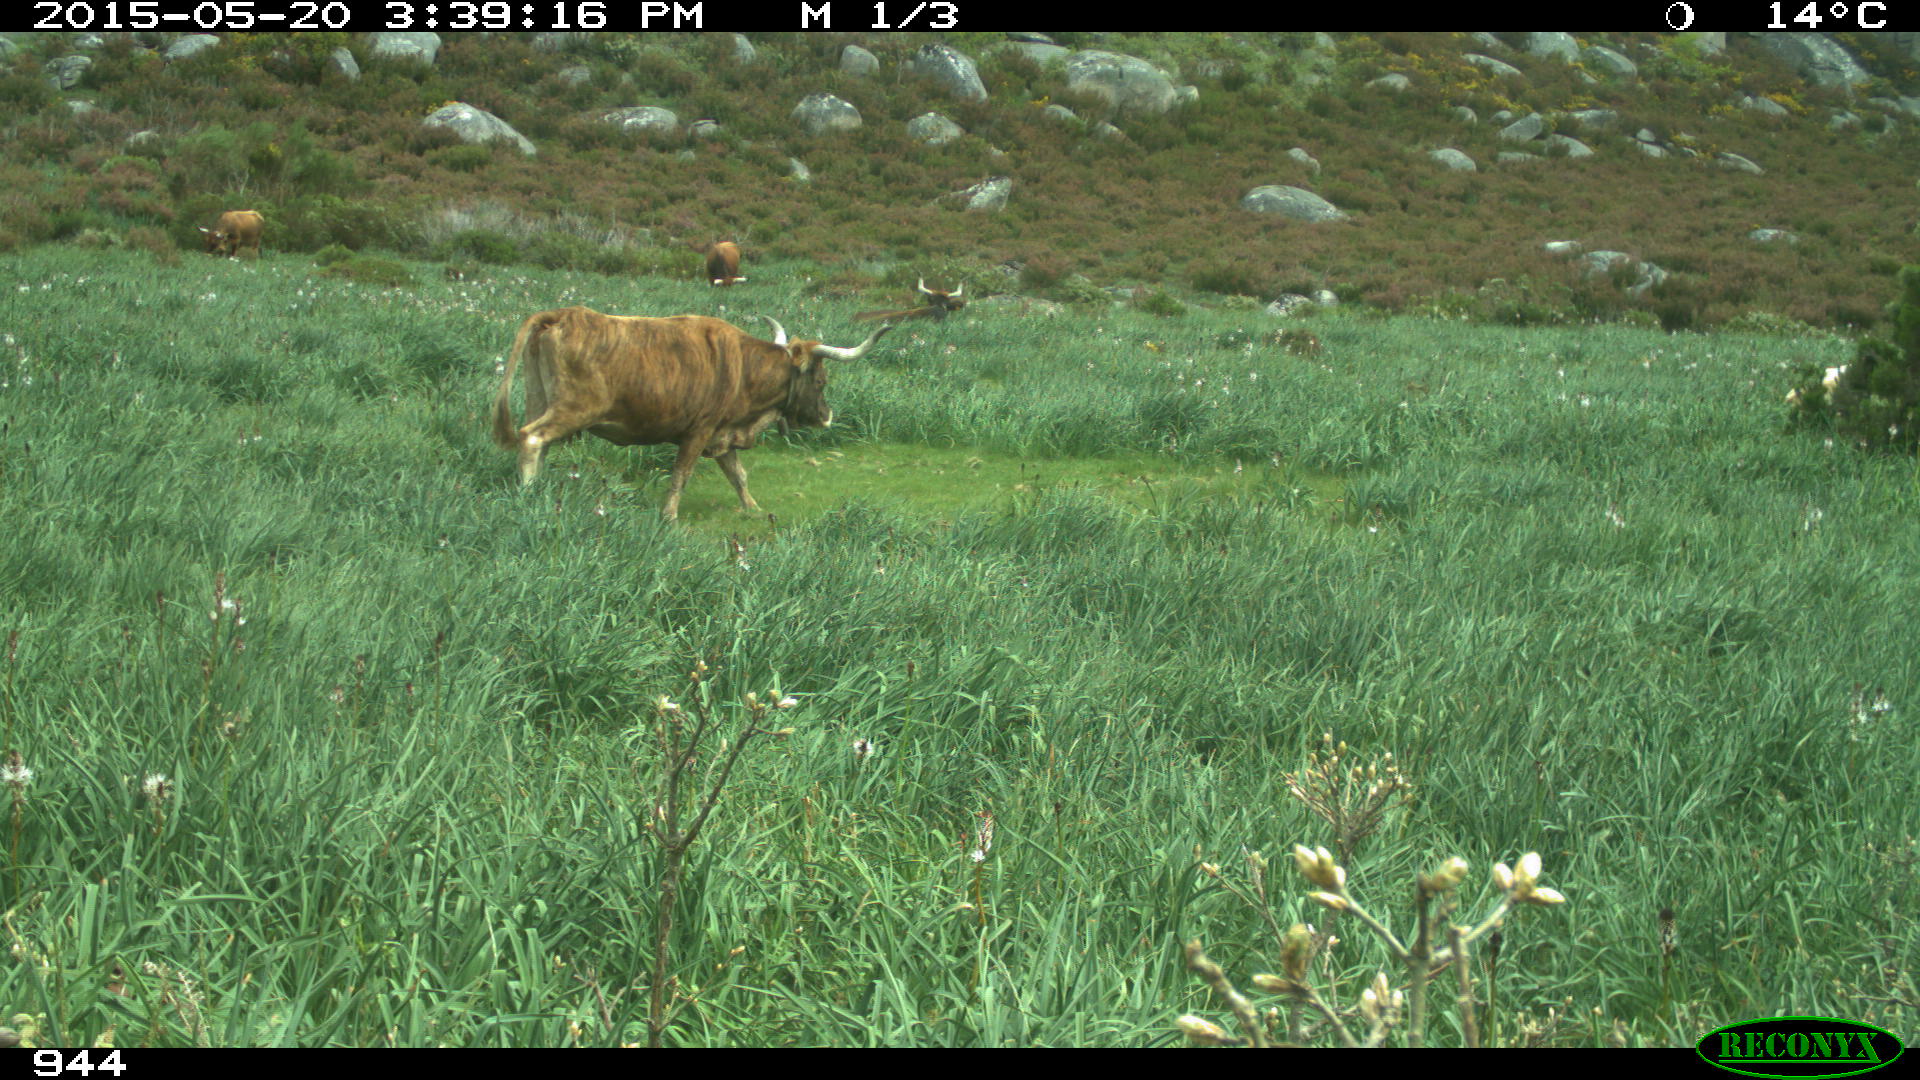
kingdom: Animalia
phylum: Chordata
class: Mammalia
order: Artiodactyla
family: Bovidae
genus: Bos
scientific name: Bos taurus
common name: Domesticated cattle
